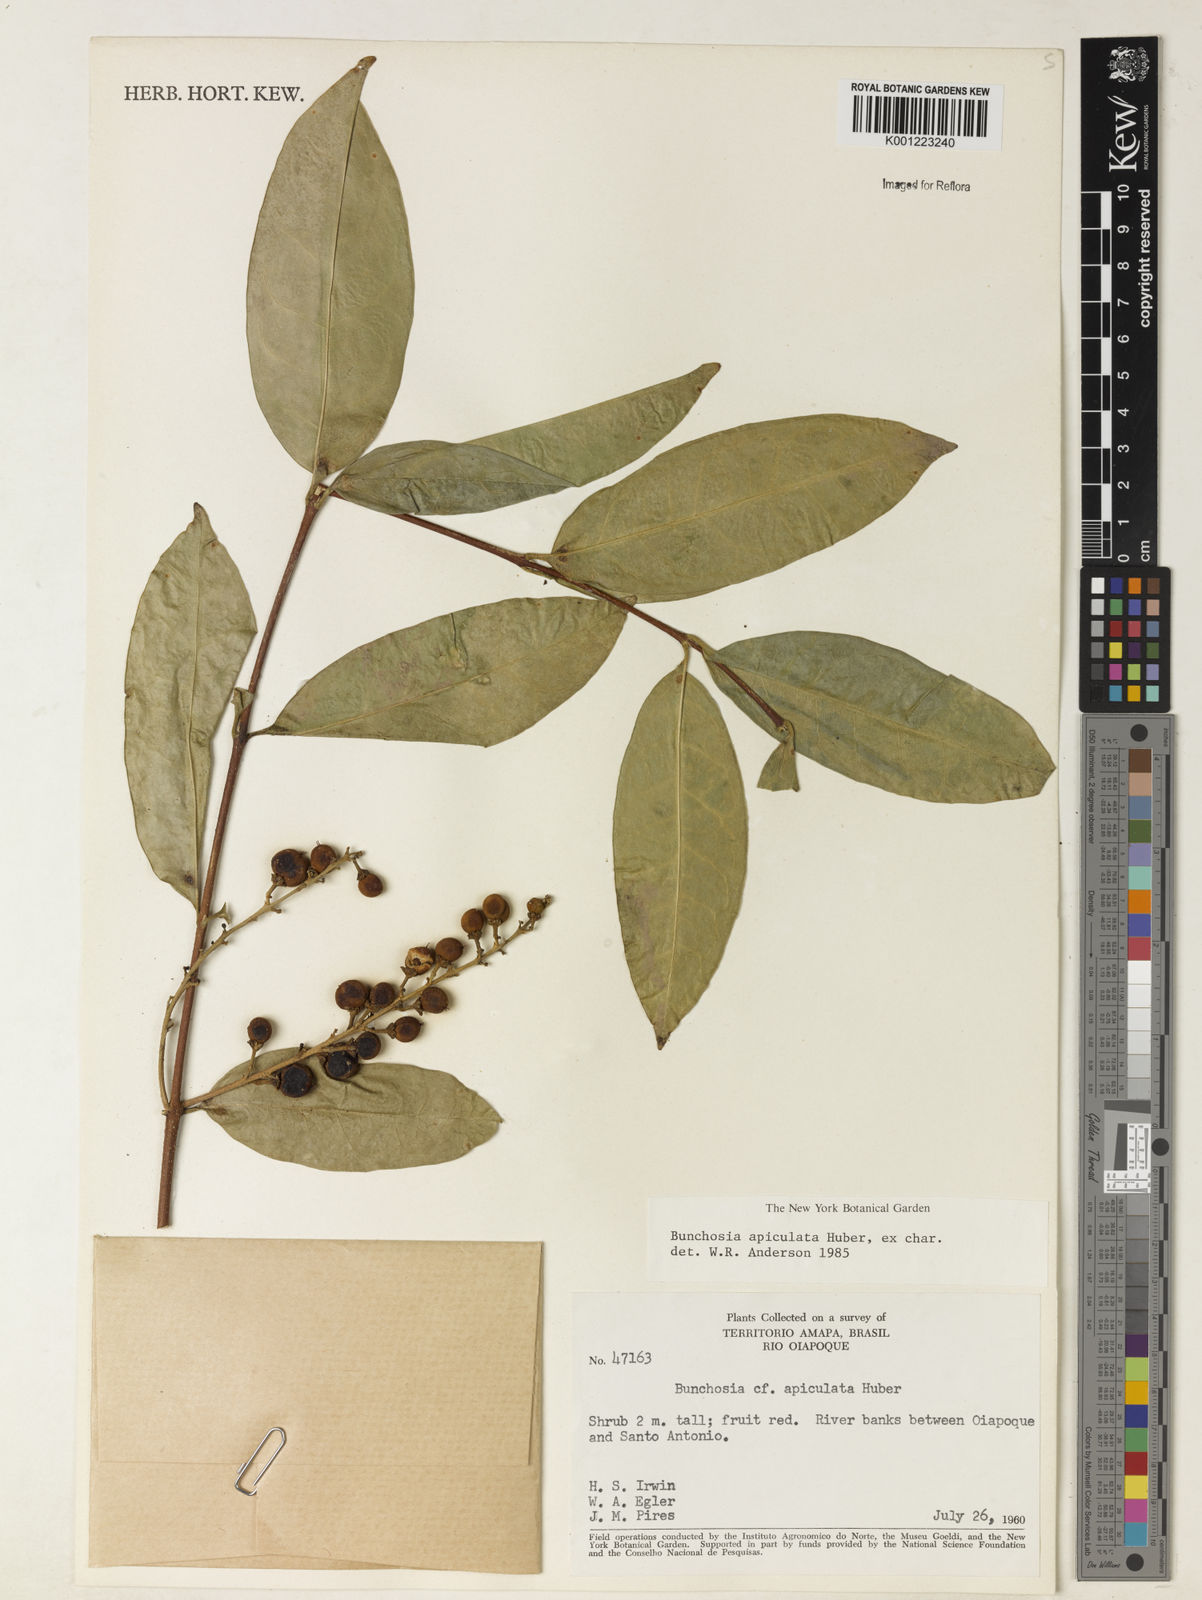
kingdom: Plantae
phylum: Tracheophyta
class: Magnoliopsida
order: Malpighiales
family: Malpighiaceae
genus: Bunchosia
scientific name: Bunchosia
